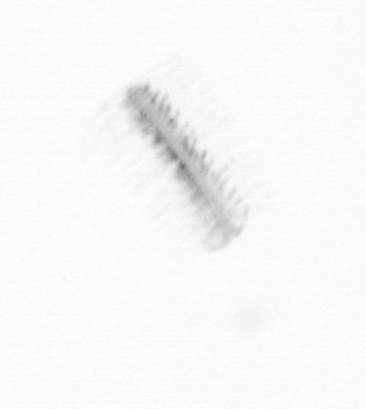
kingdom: Chromista
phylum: Ochrophyta
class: Bacillariophyceae
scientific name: Bacillariophyceae
